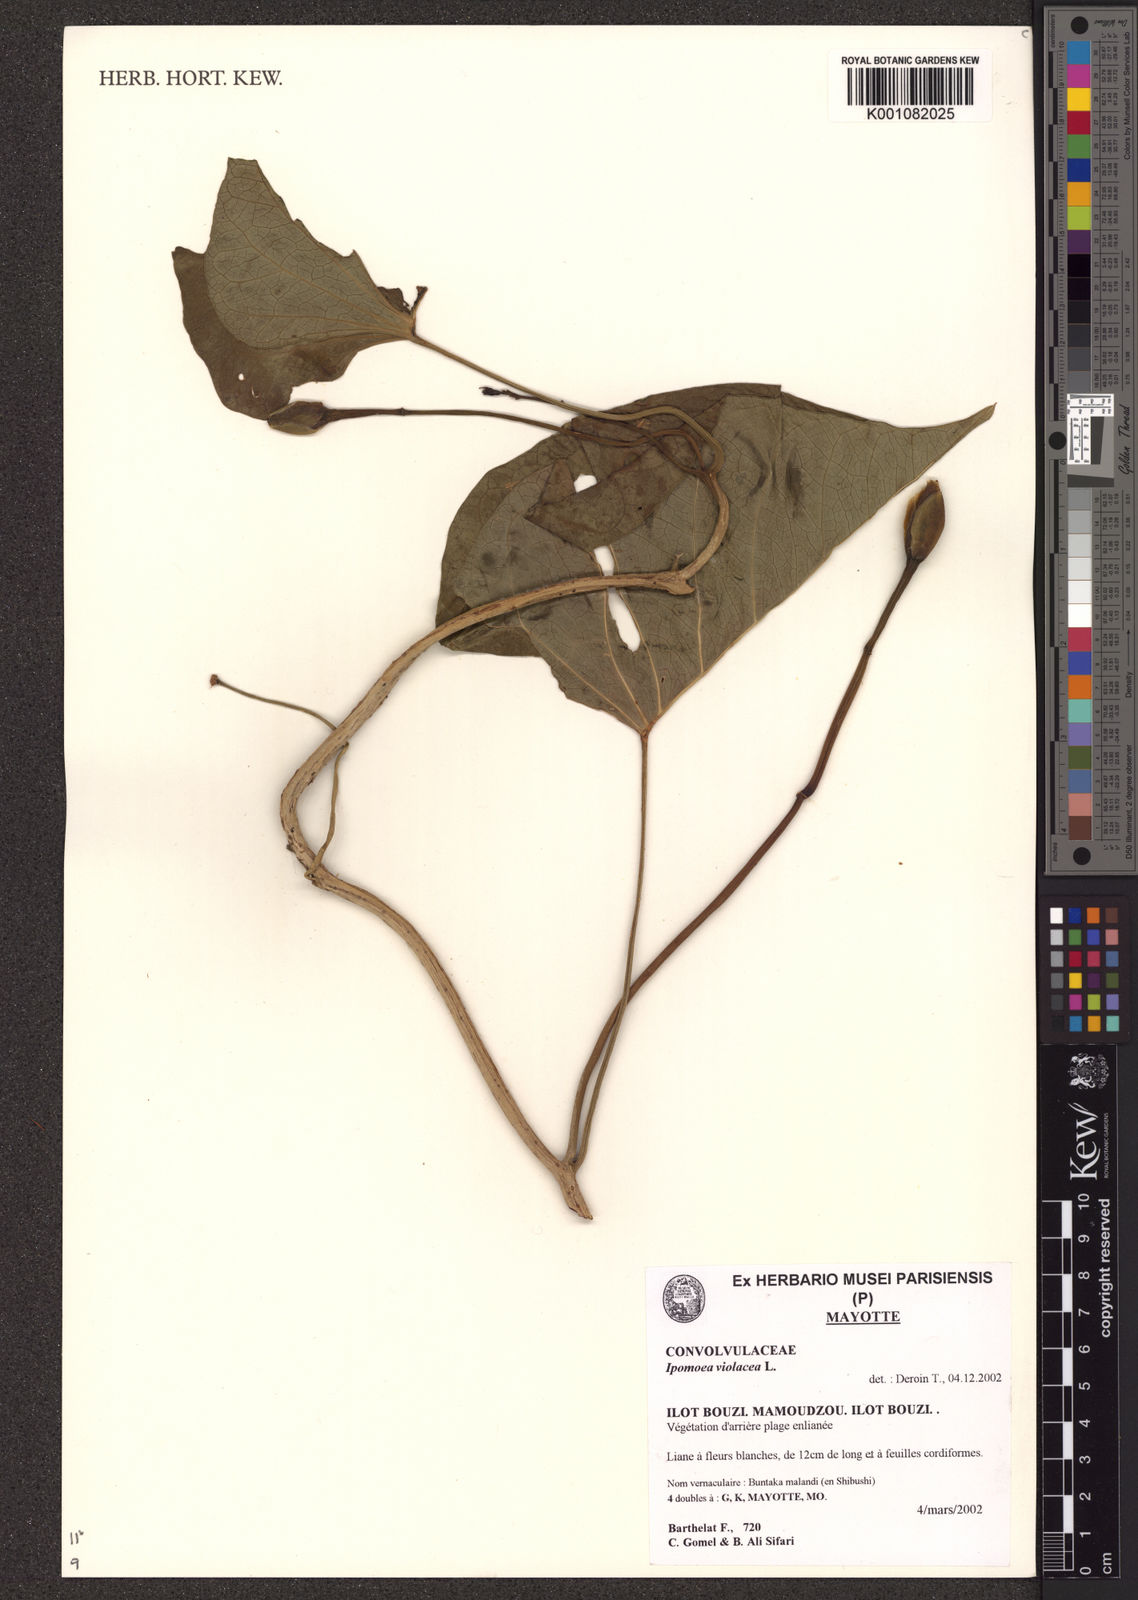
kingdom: Plantae
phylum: Tracheophyta
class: Magnoliopsida
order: Solanales
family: Convolvulaceae
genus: Ipomoea
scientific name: Ipomoea violacea
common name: Beach moonflower
